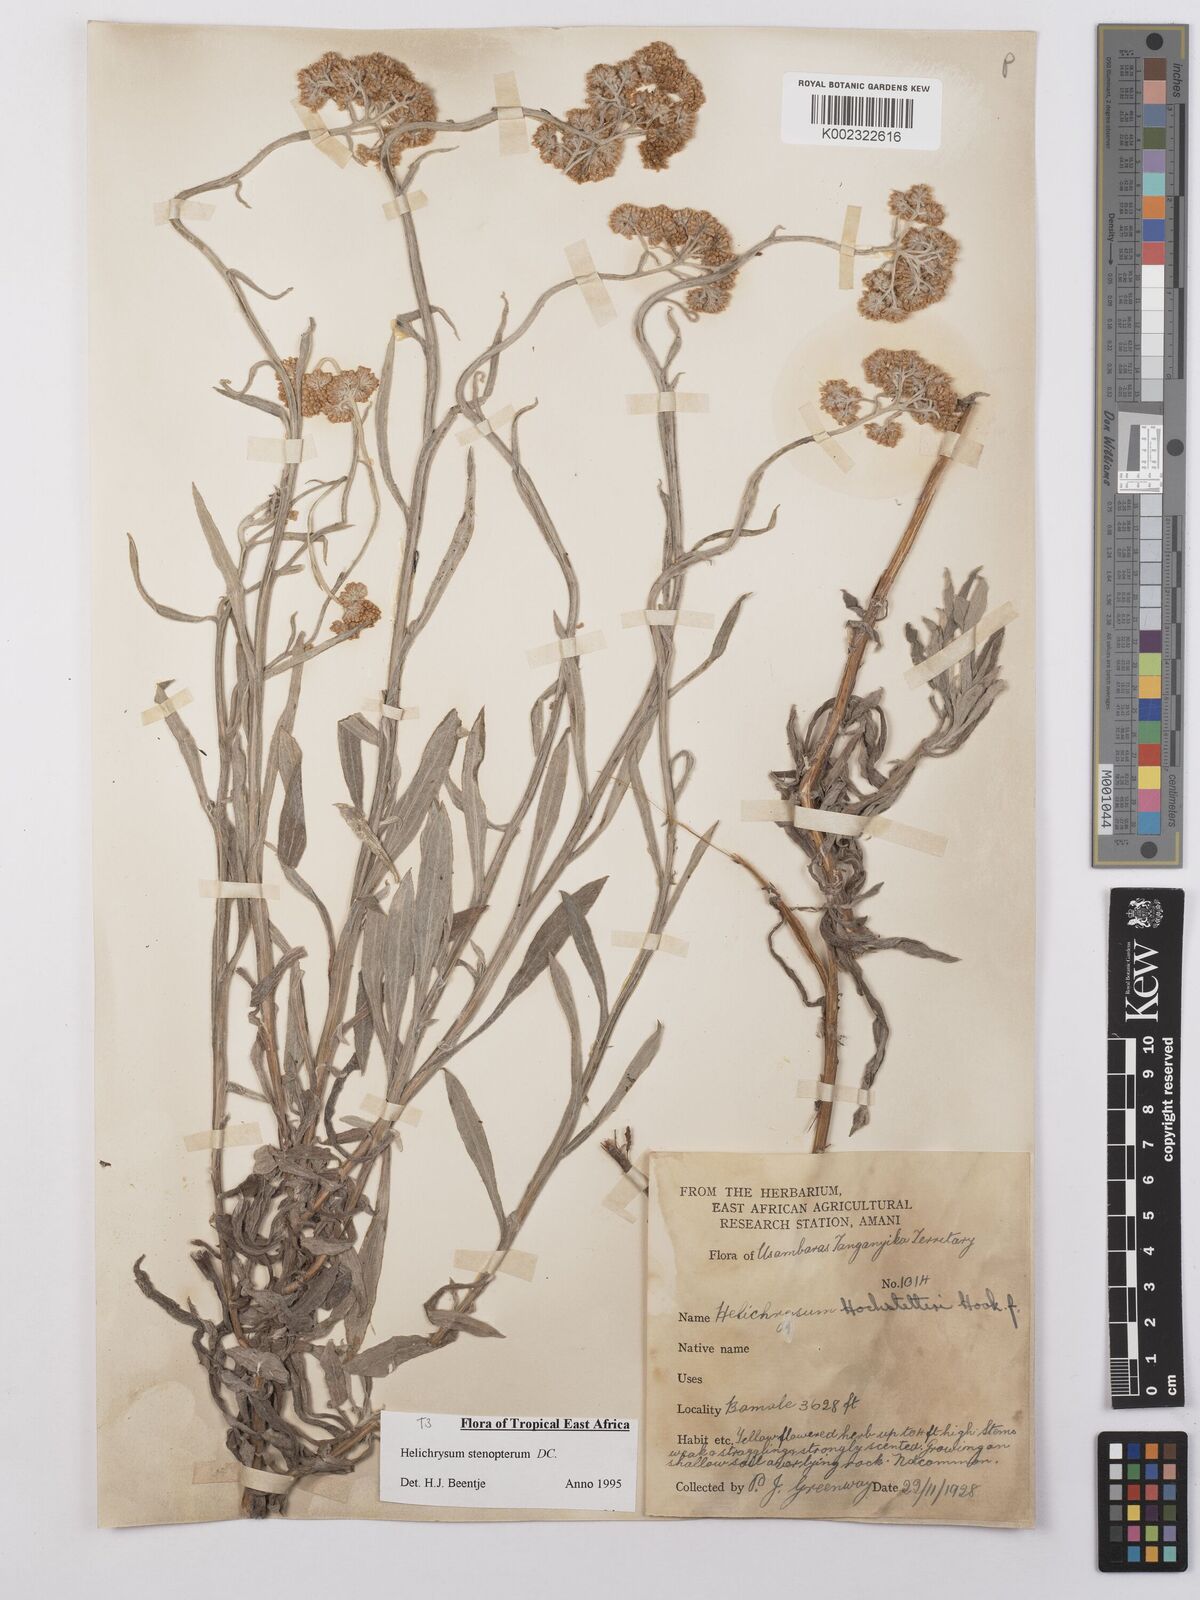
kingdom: Plantae
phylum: Tracheophyta
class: Magnoliopsida
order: Asterales
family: Asteraceae
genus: Helichrysum
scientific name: Helichrysum stenopterum
